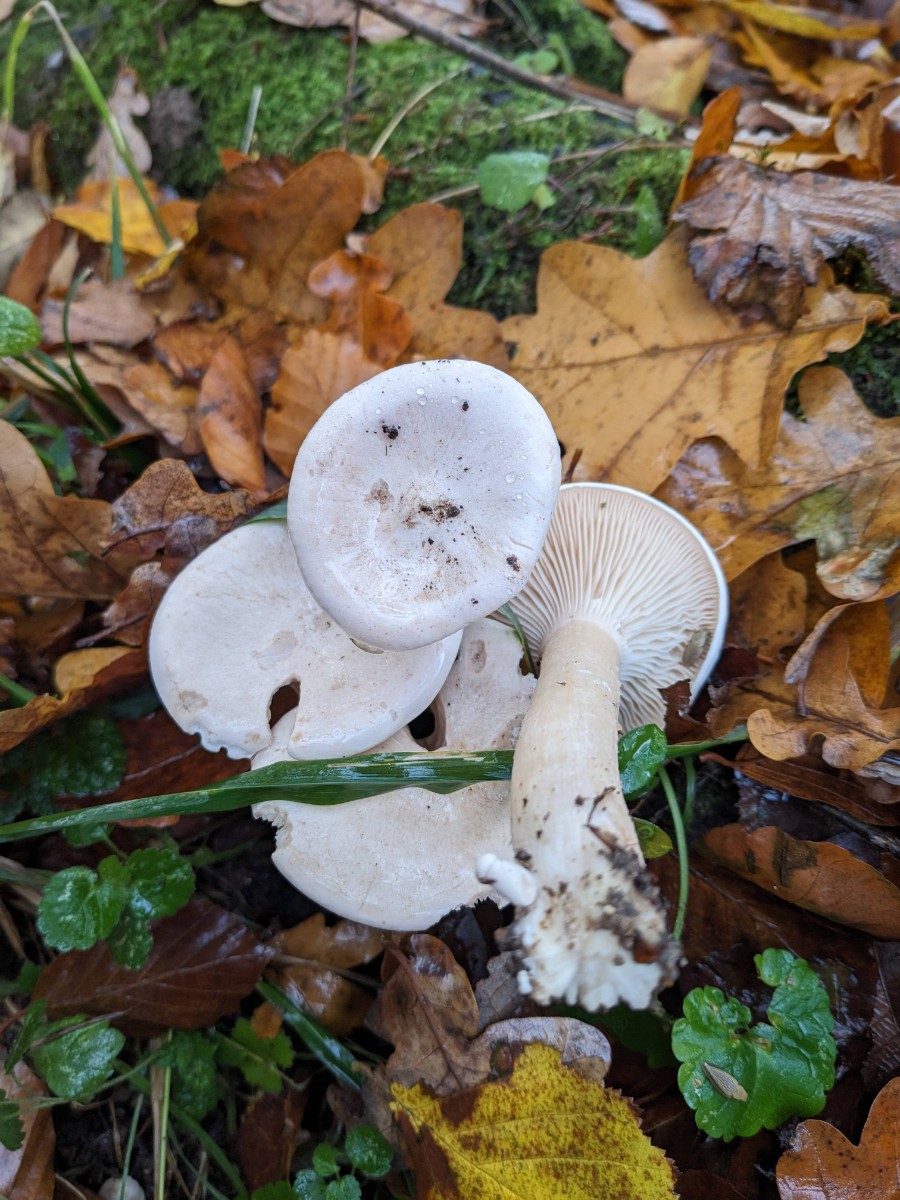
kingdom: Fungi
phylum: Basidiomycota
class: Agaricomycetes
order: Agaricales
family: Tricholomataceae
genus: Infundibulicybe
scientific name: Infundibulicybe geotropa
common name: stor tragthat
